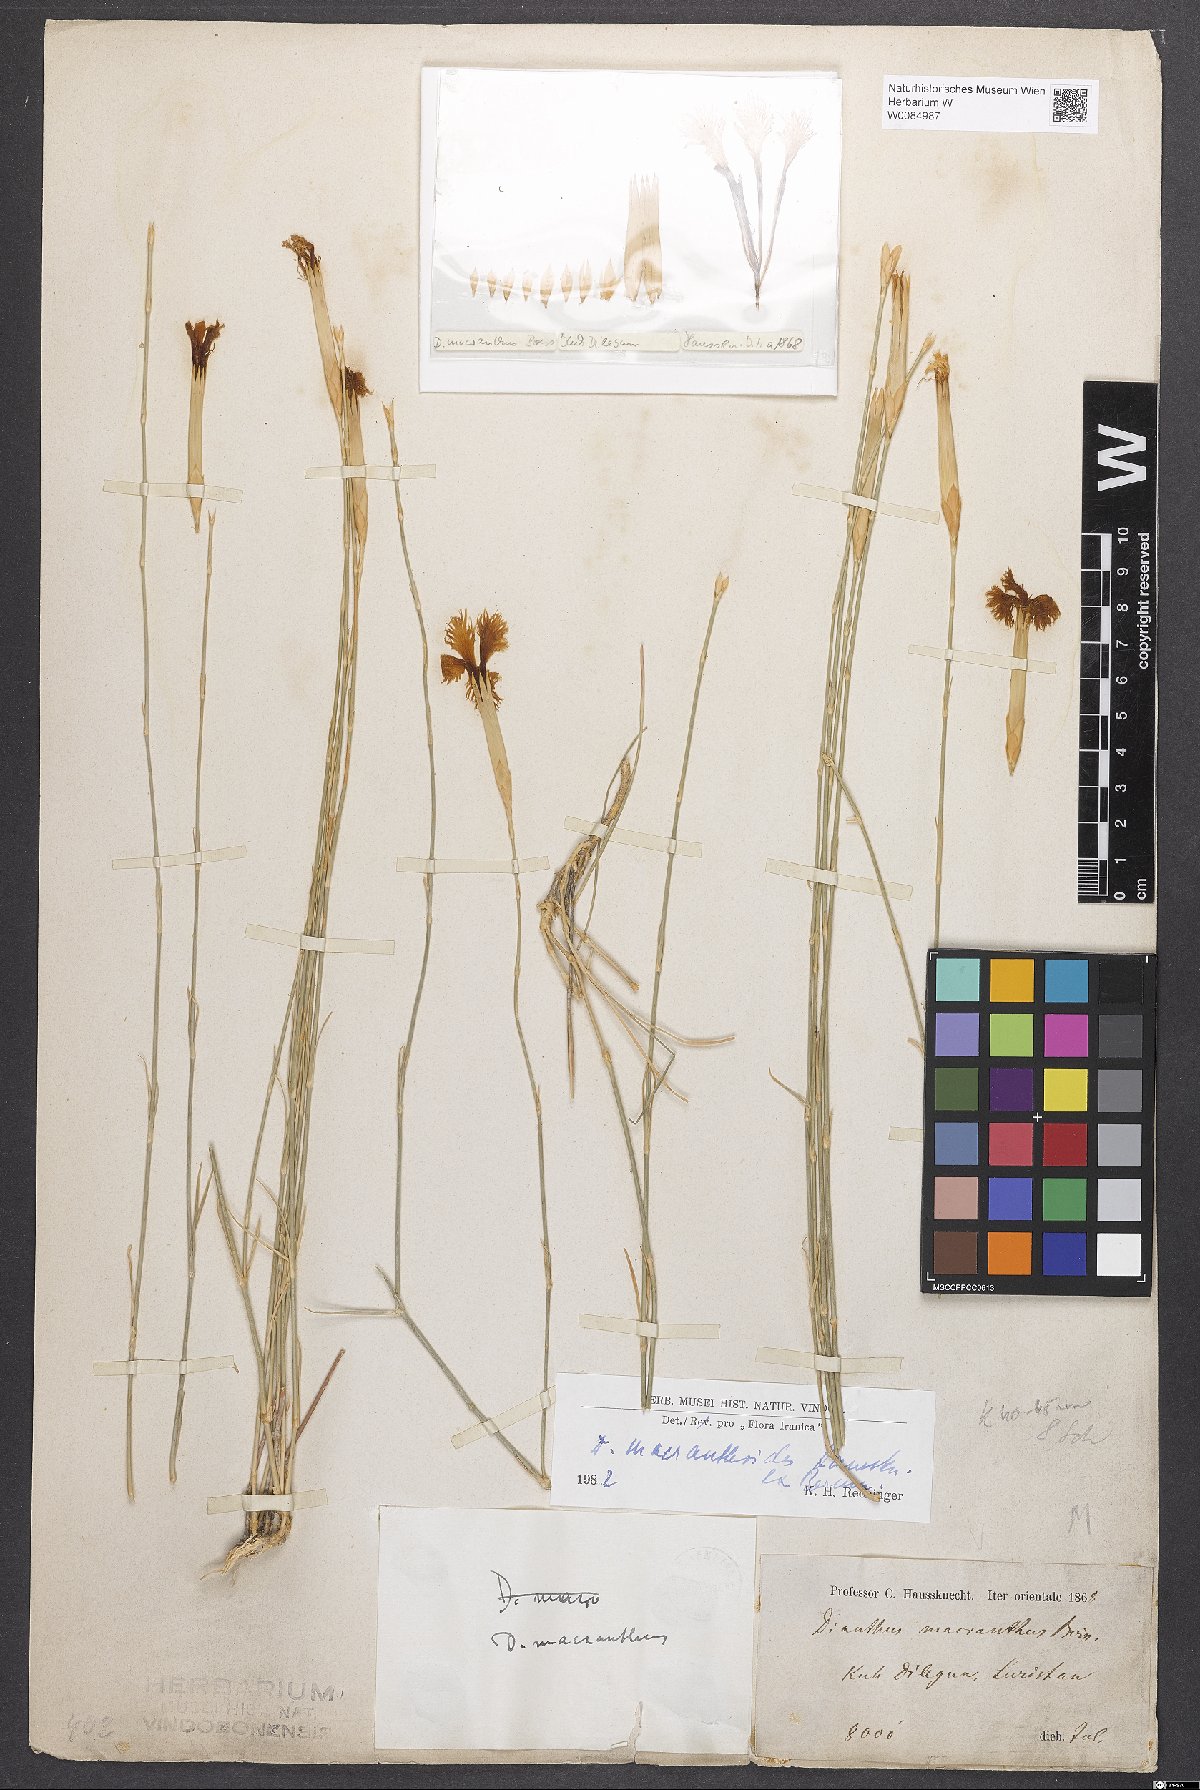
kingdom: Plantae
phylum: Tracheophyta
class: Magnoliopsida
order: Caryophyllales
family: Caryophyllaceae
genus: Dianthus
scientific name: Dianthus macranthoides
